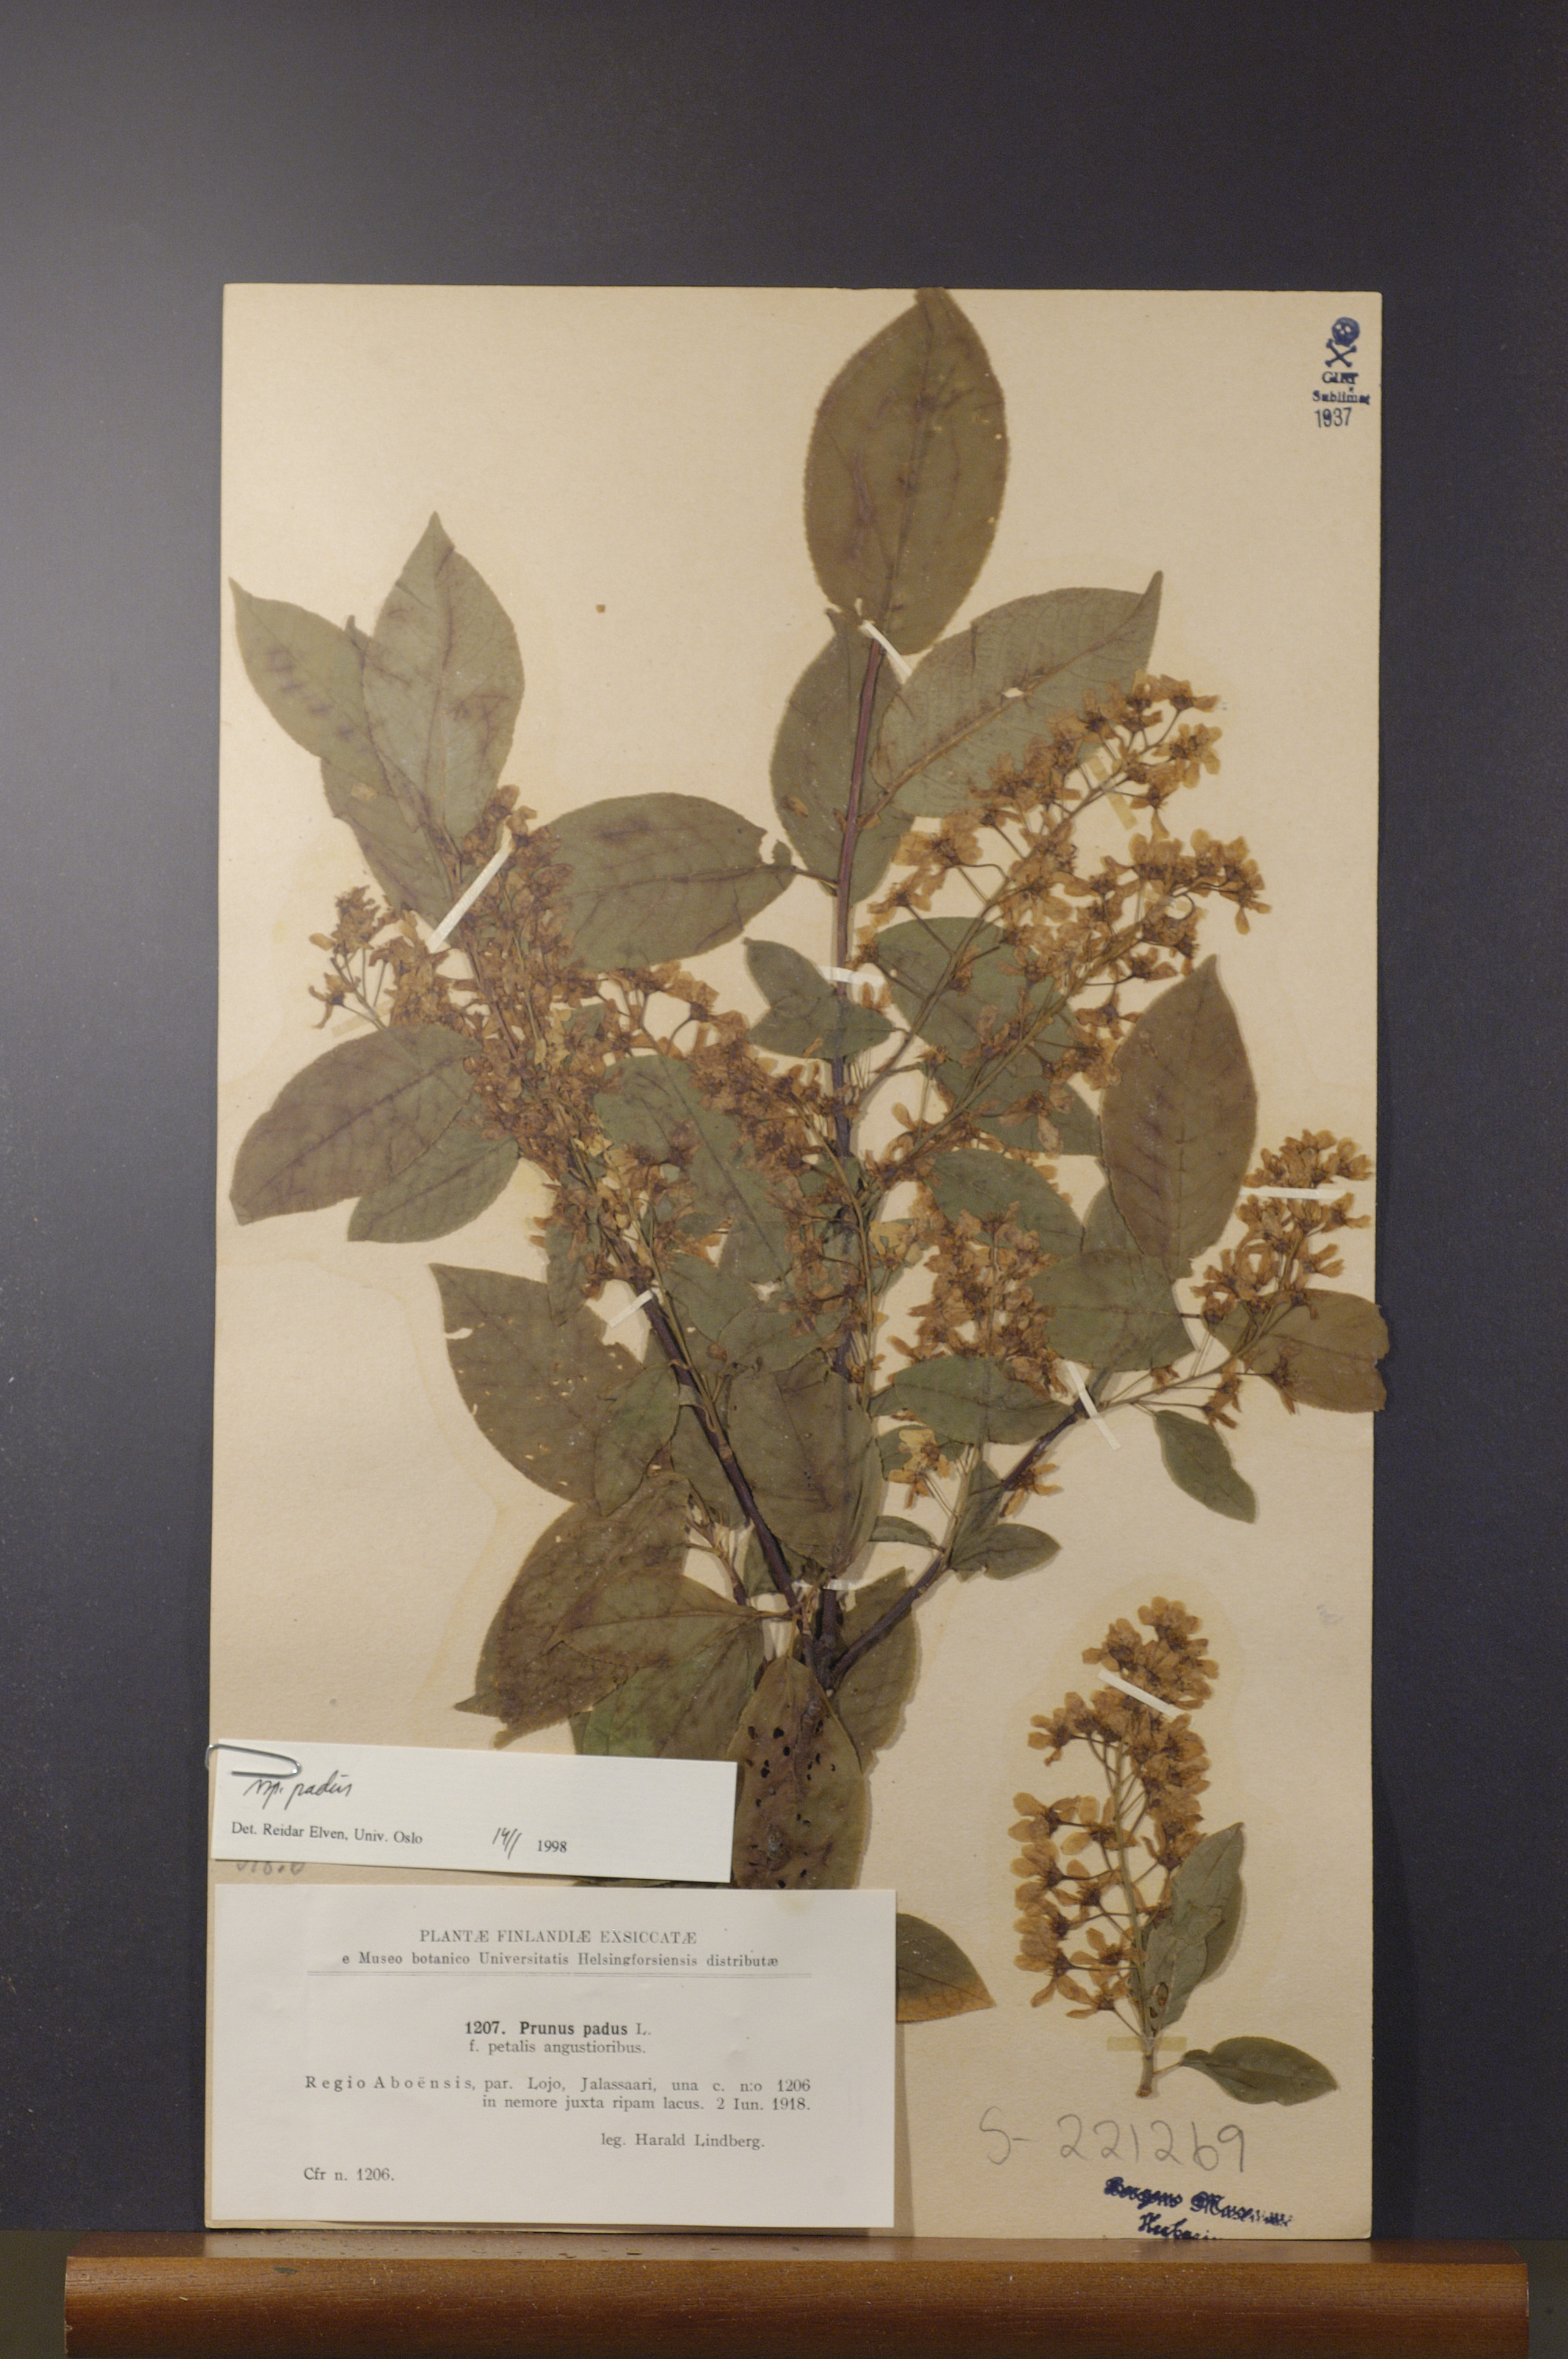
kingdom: Plantae
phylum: Tracheophyta
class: Magnoliopsida
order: Rosales
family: Rosaceae
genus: Prunus
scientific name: Prunus padus
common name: Bird cherry
